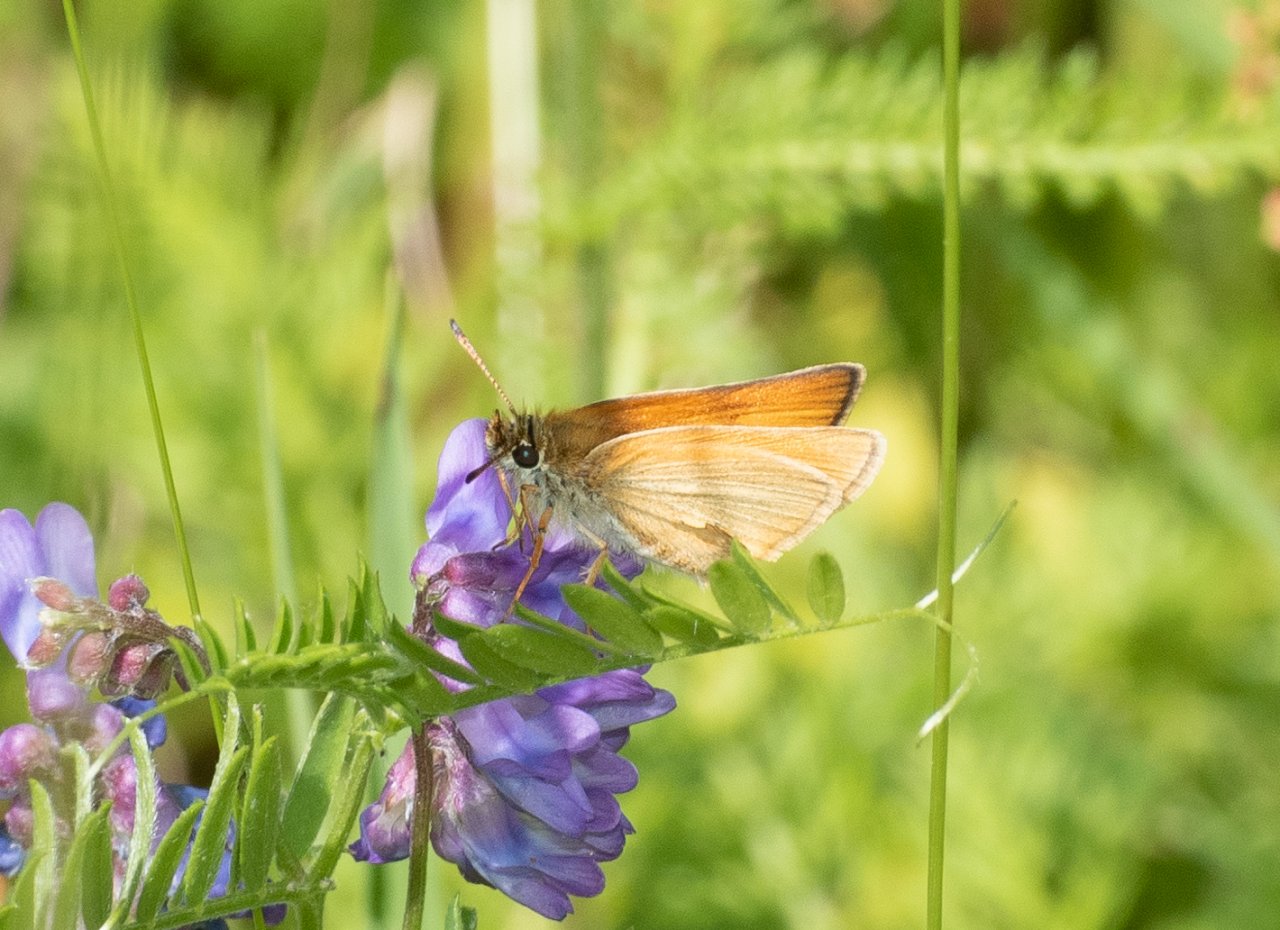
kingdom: Animalia
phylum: Arthropoda
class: Insecta
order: Lepidoptera
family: Hesperiidae
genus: Thymelicus
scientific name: Thymelicus lineola
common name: European Skipper
